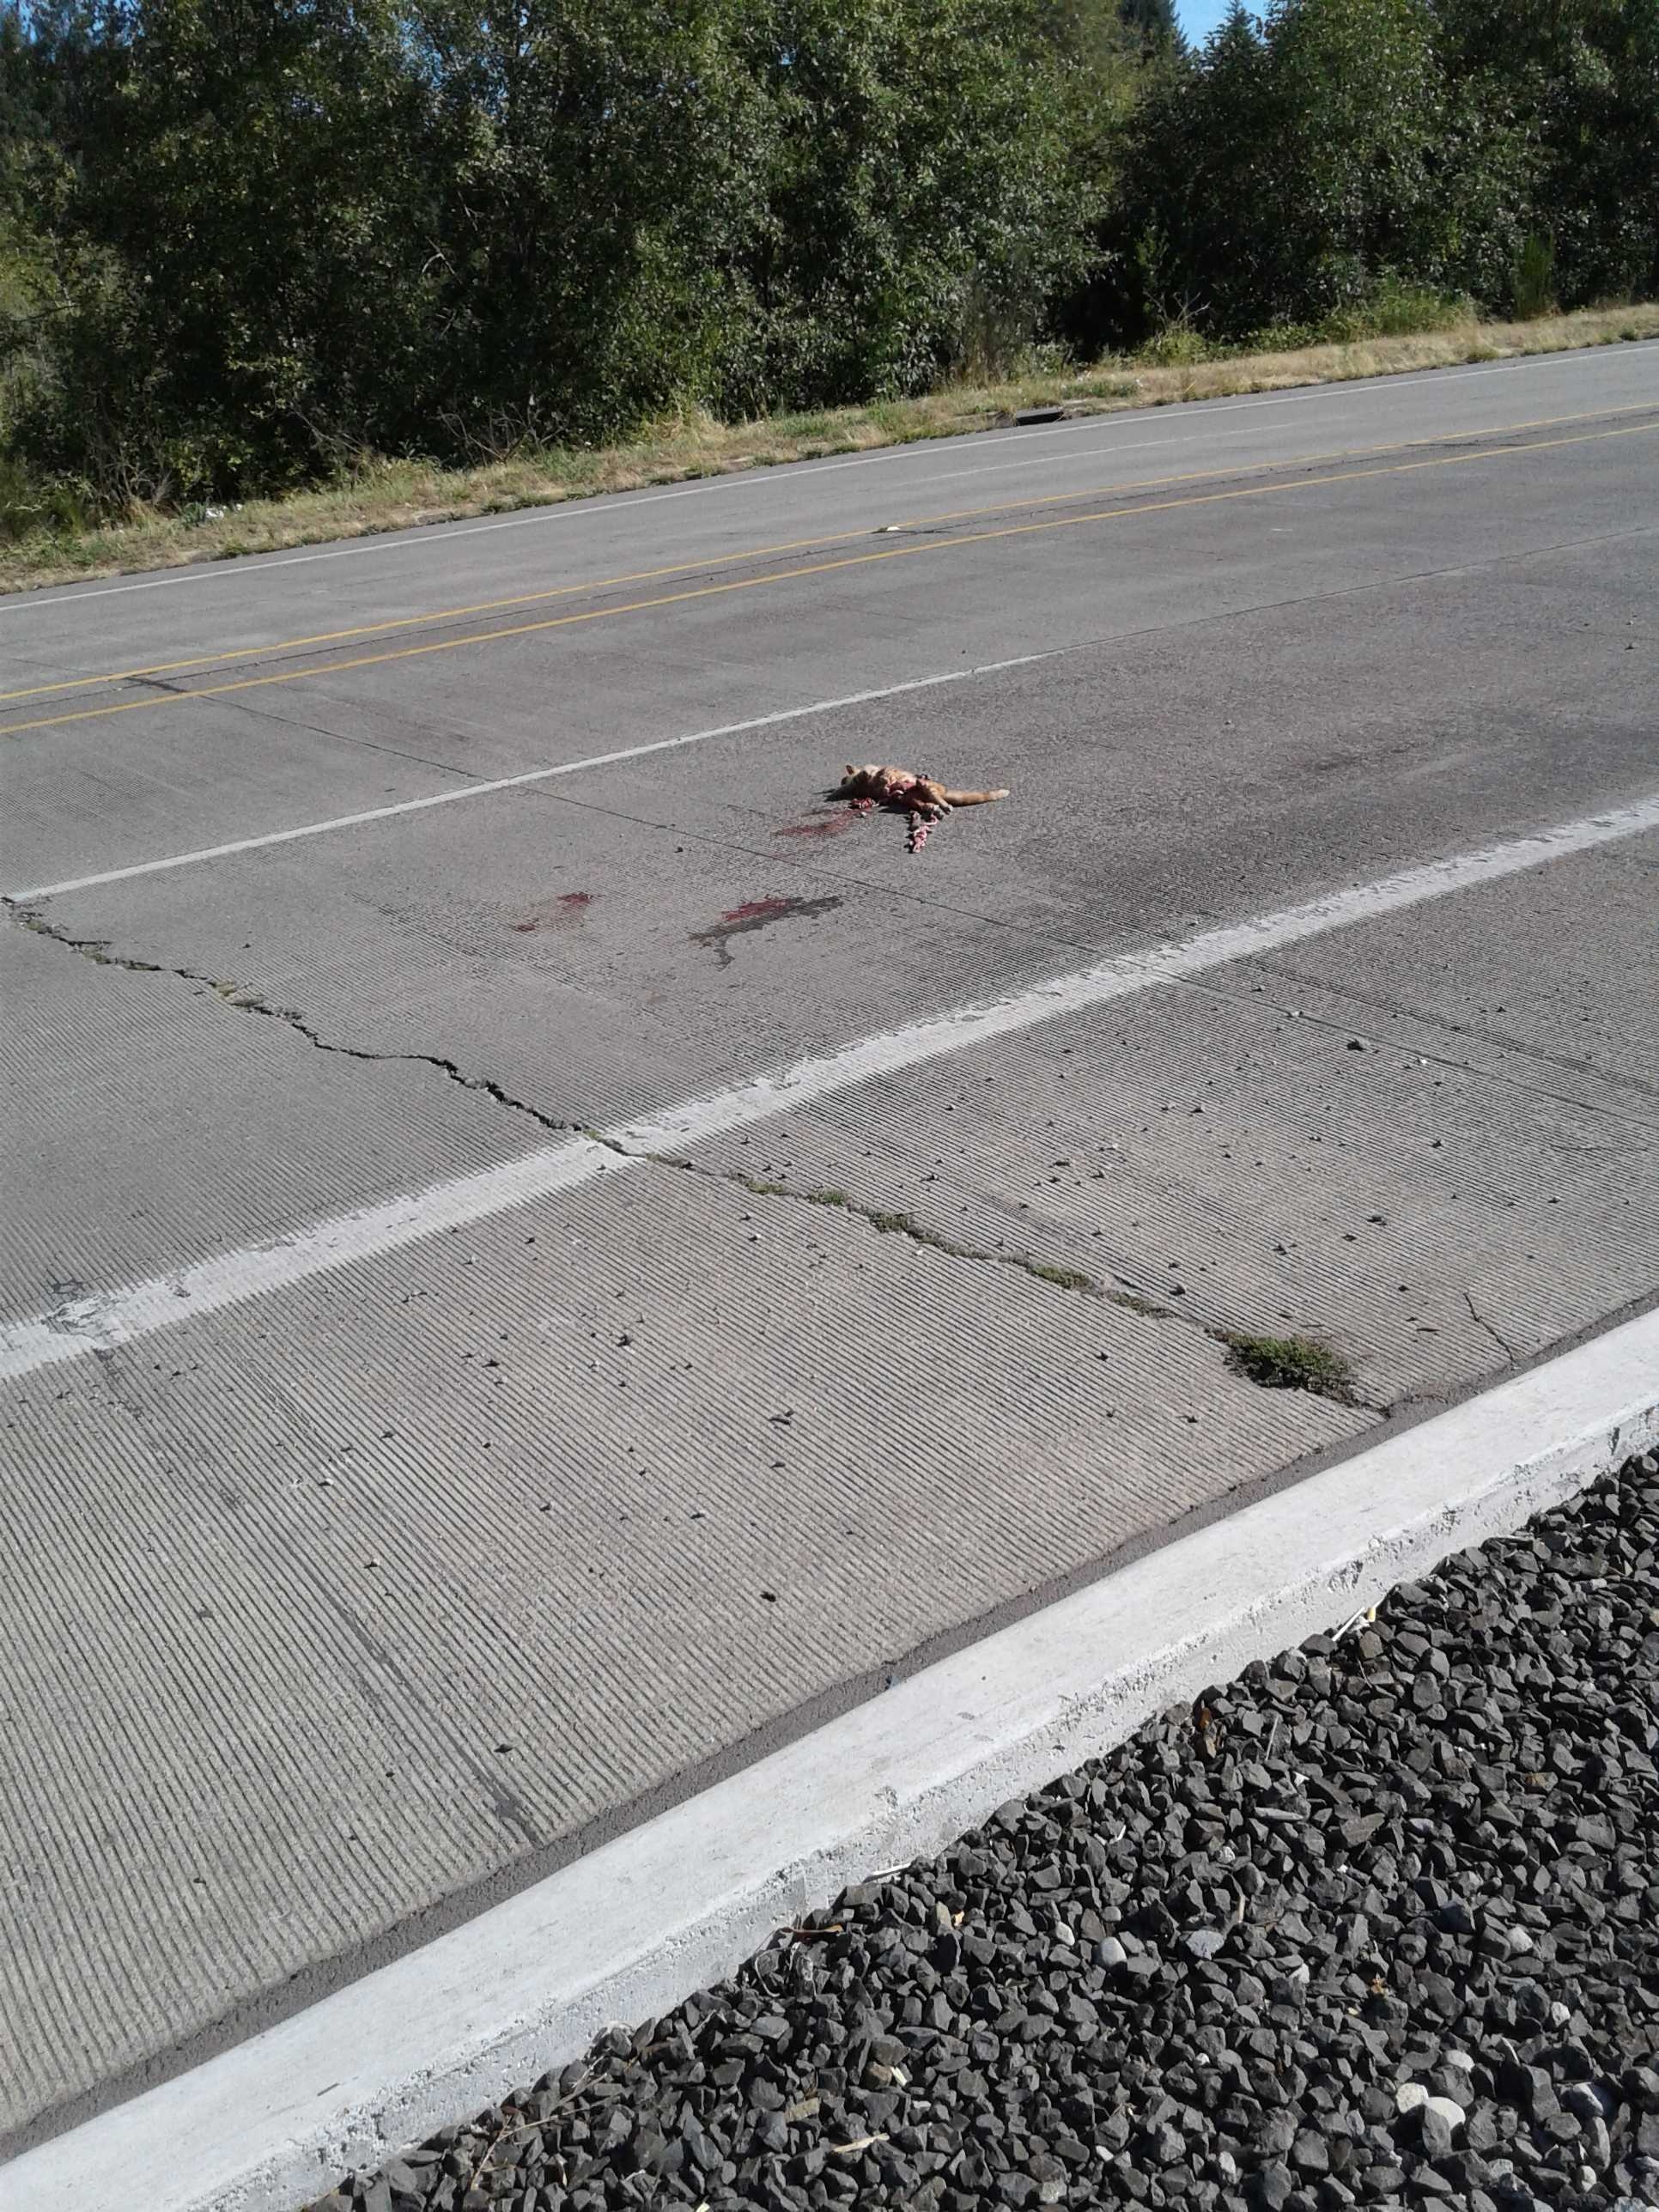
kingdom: Animalia
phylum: Chordata
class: Mammalia
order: Carnivora
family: Felidae
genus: Felis
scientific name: Felis catus
